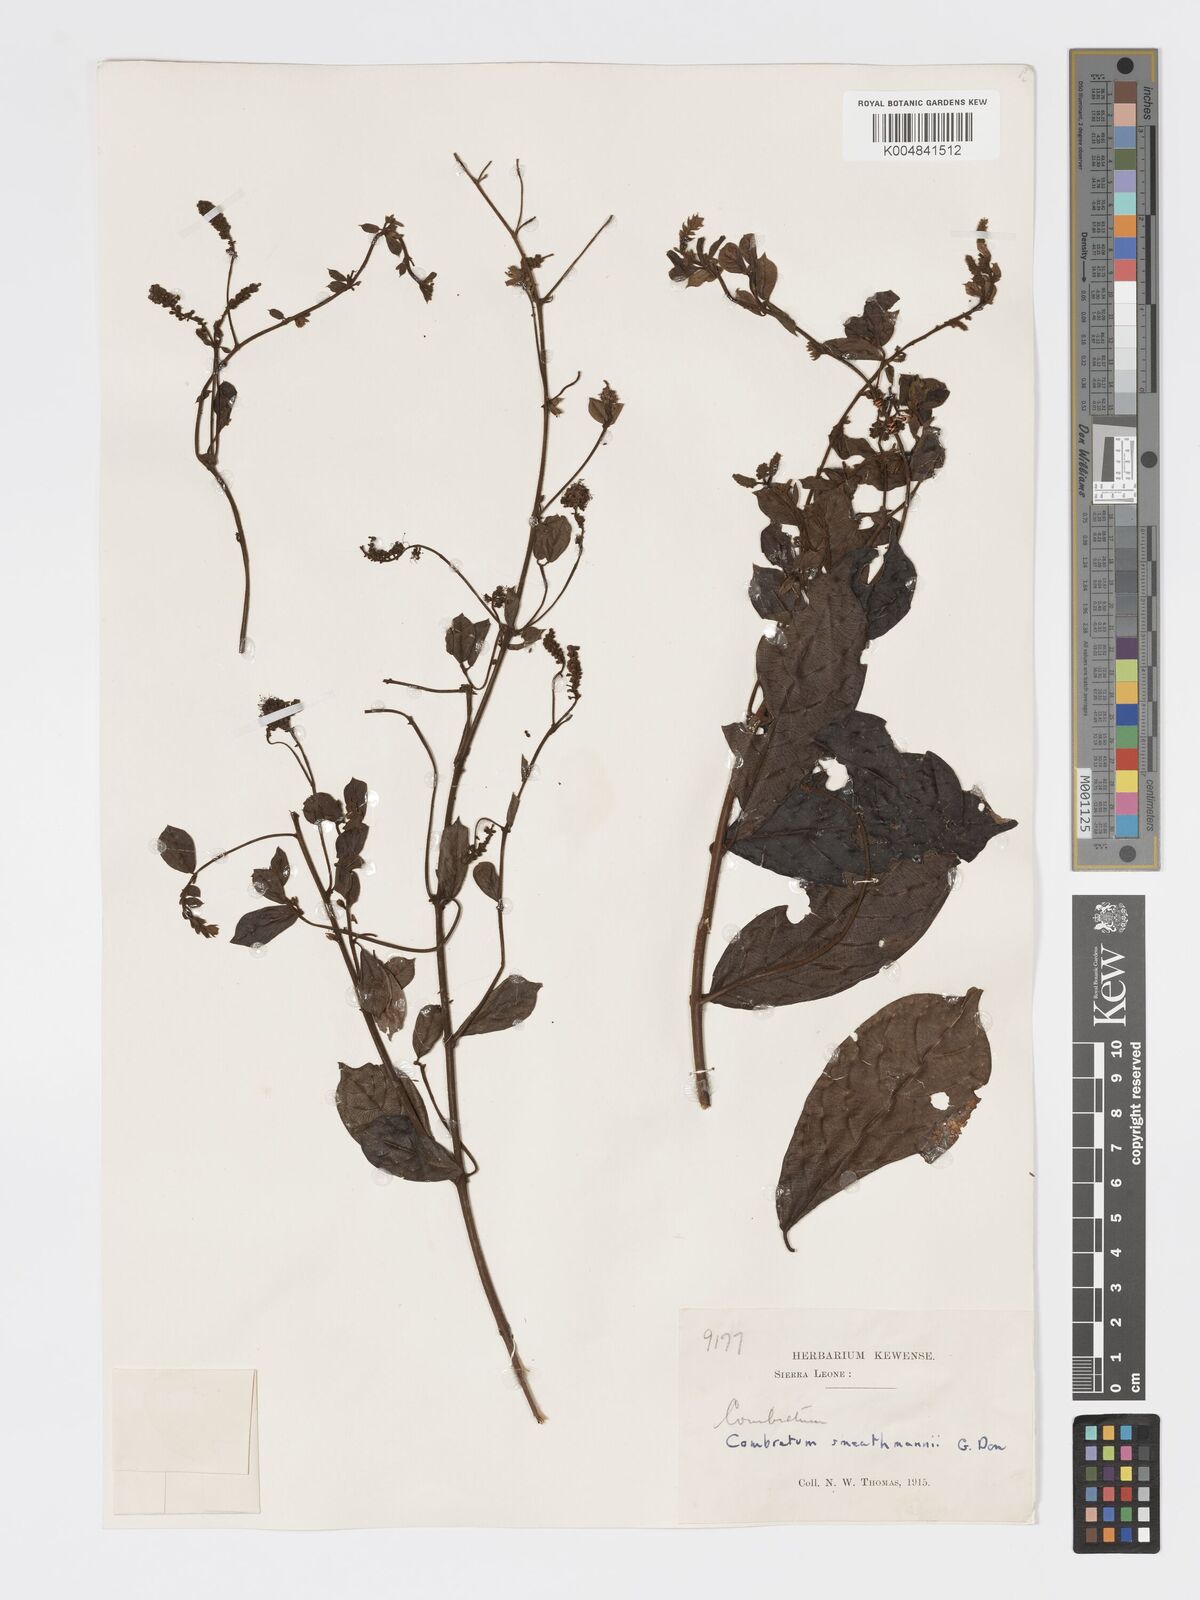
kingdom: Plantae
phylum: Tracheophyta
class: Magnoliopsida
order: Myrtales
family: Combretaceae
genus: Combretum
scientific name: Combretum mucronatum
